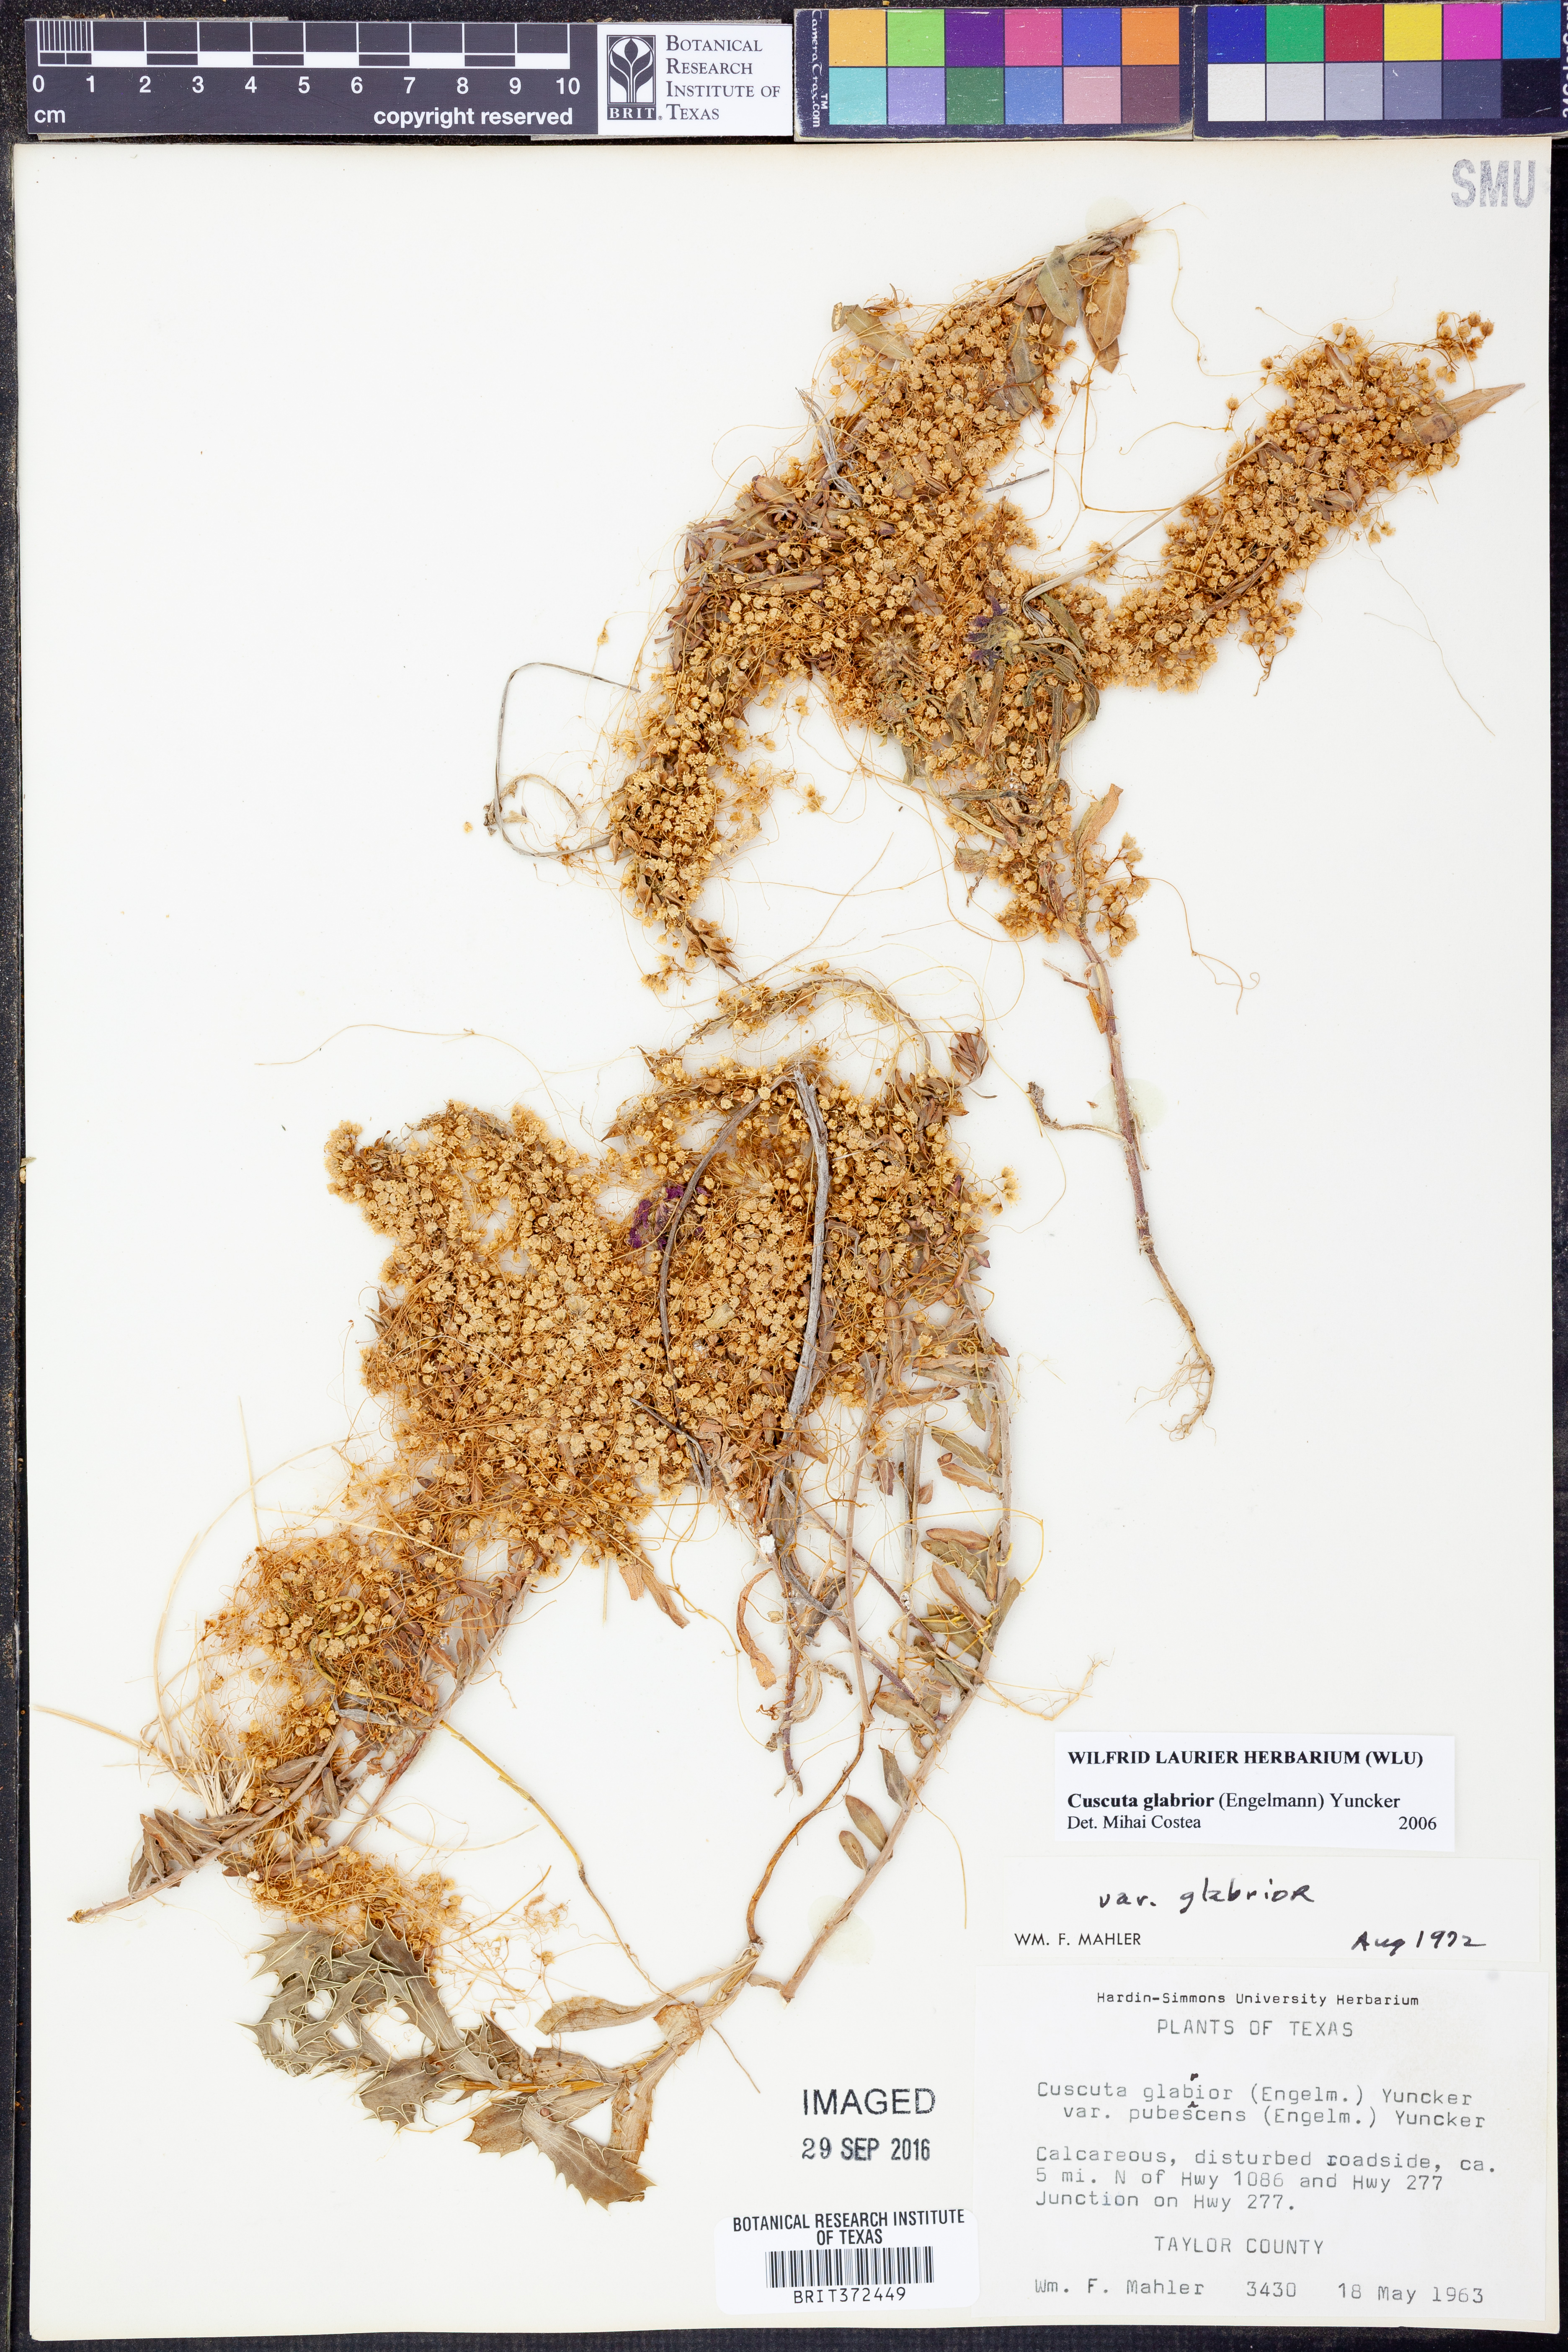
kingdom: Plantae
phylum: Tracheophyta
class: Magnoliopsida
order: Solanales
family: Convolvulaceae
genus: Cuscuta
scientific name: Cuscuta glabrior
